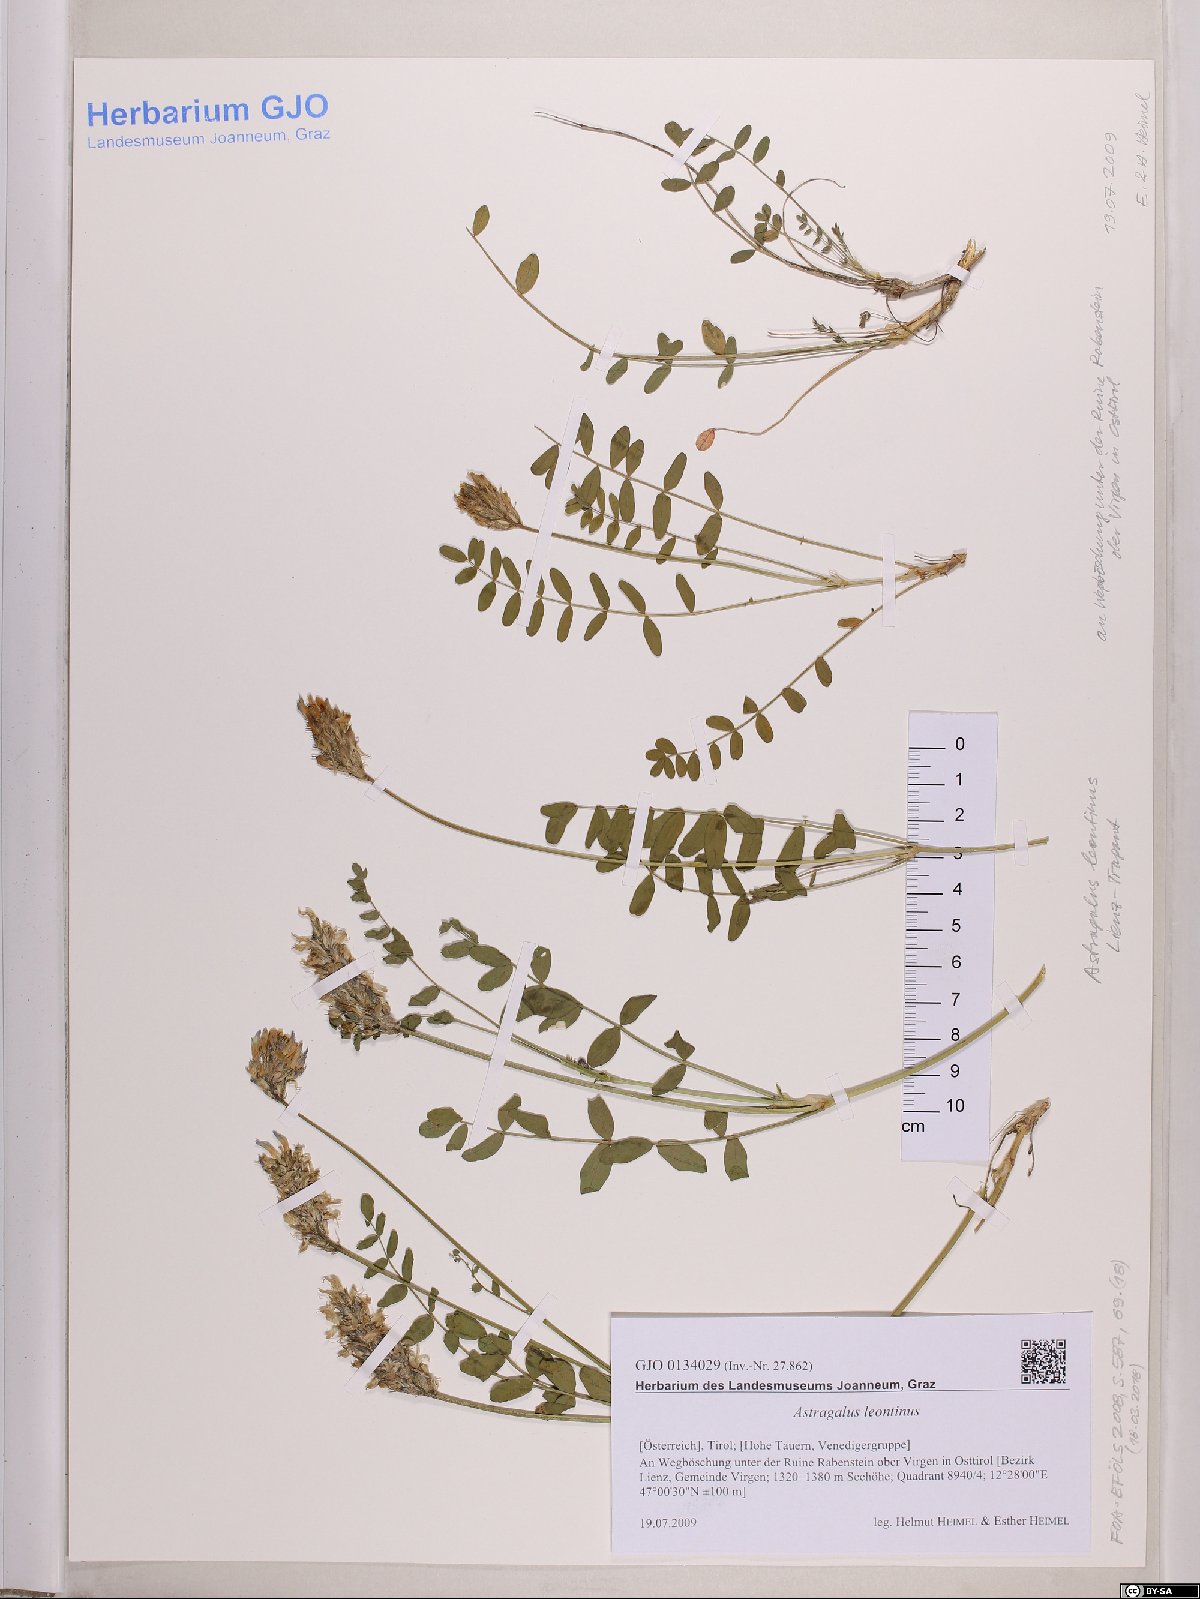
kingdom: Plantae
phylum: Tracheophyta
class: Magnoliopsida
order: Fabales
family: Fabaceae
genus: Astragalus
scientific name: Astragalus leontinus
